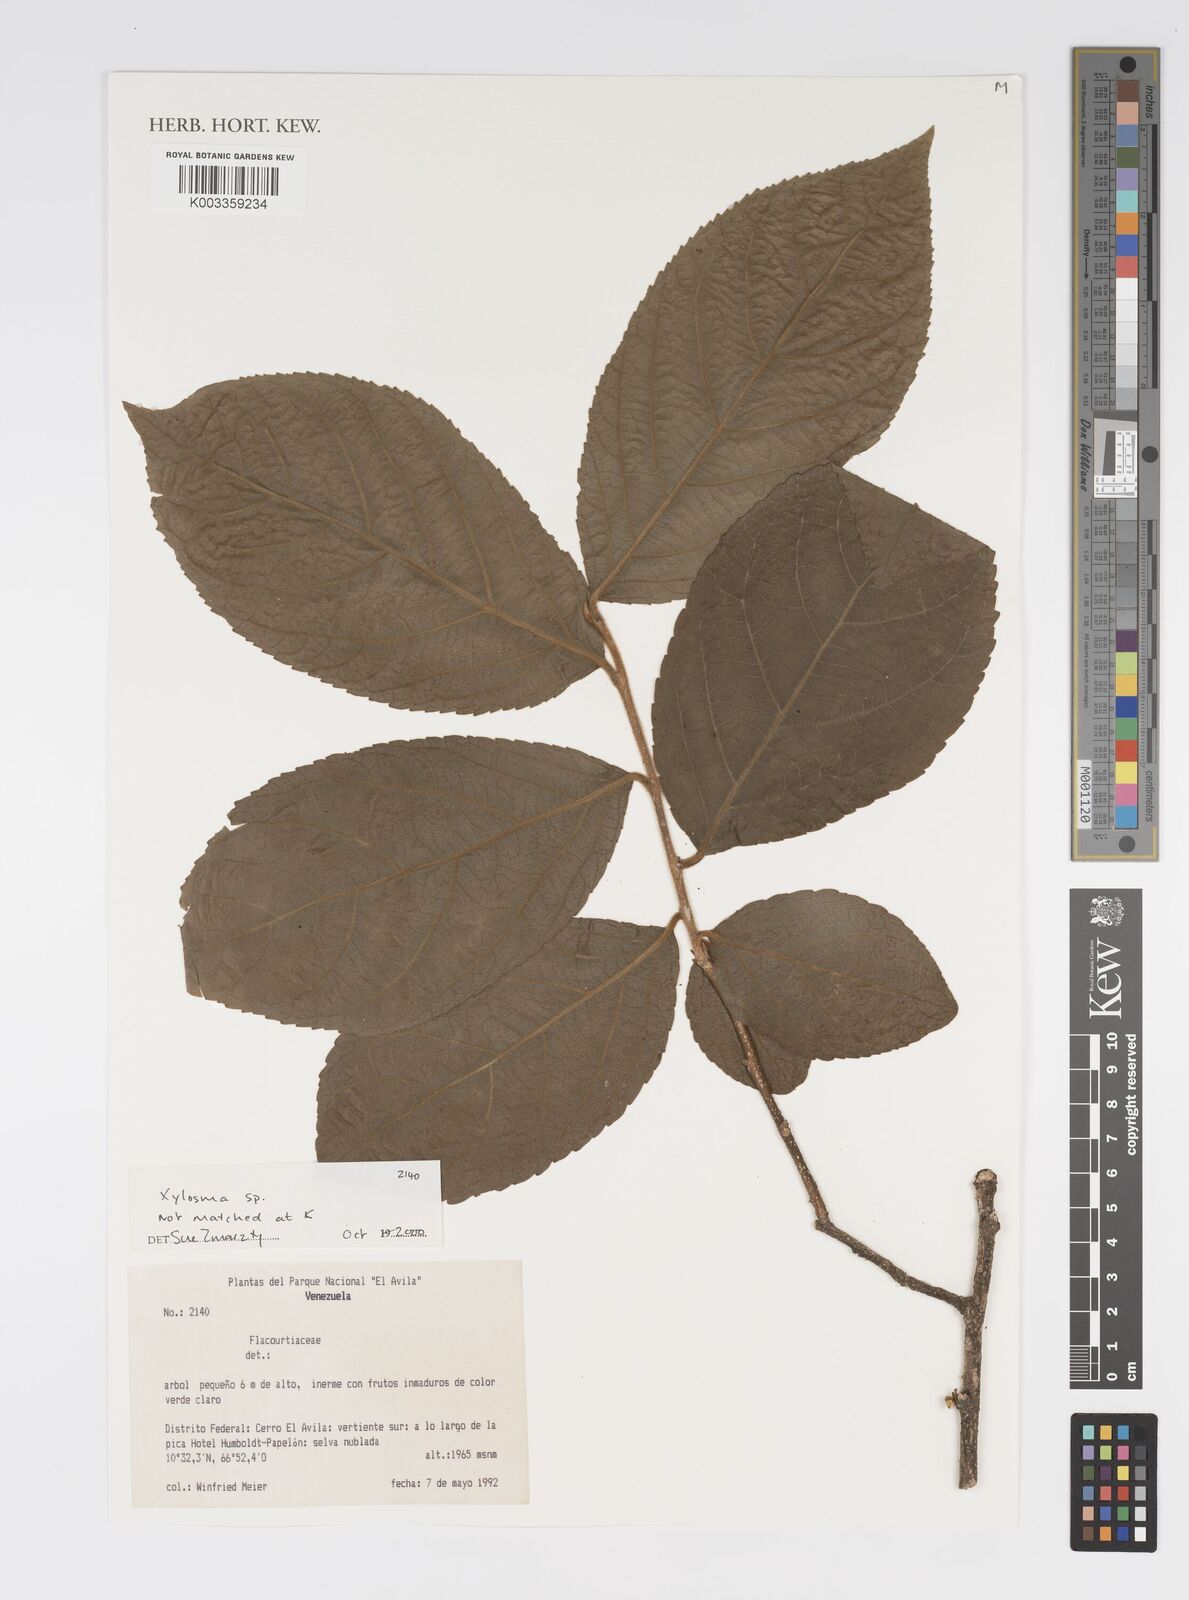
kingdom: Plantae
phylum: Tracheophyta
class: Magnoliopsida
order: Malpighiales
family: Salicaceae
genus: Xylosma
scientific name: Xylosma
